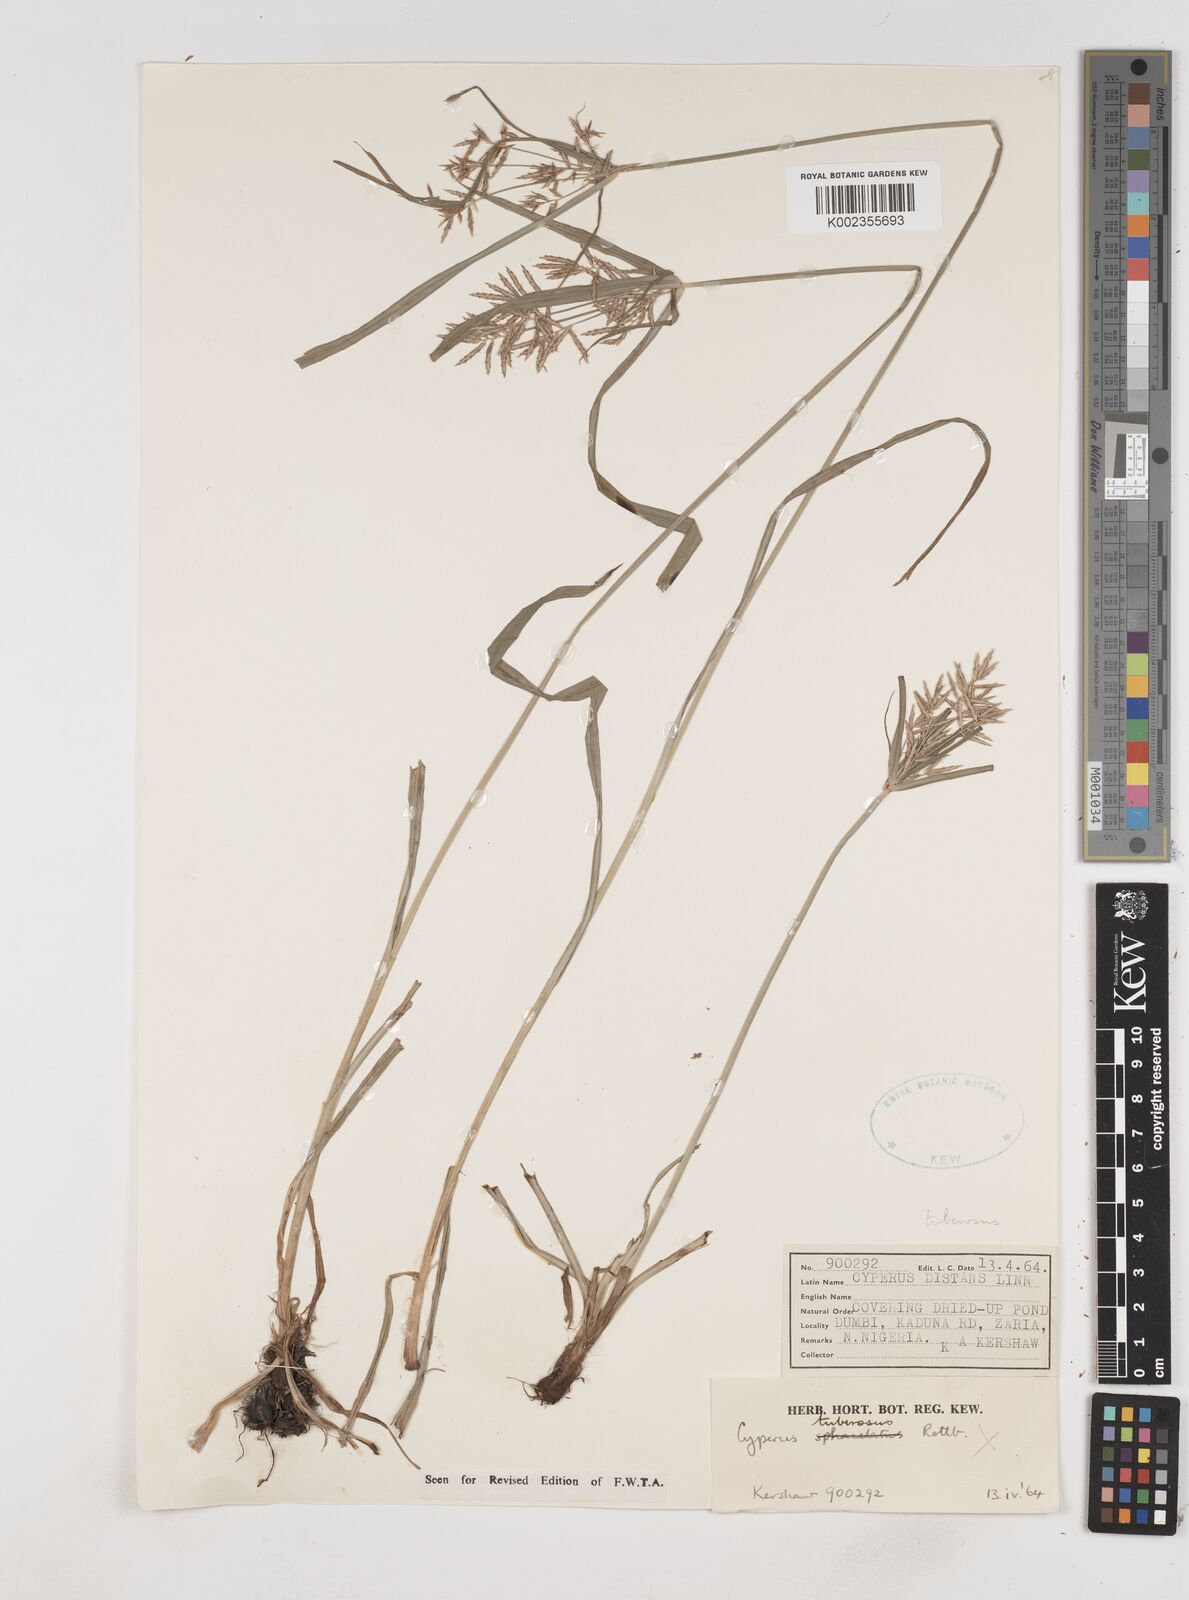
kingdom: Plantae
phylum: Tracheophyta
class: Liliopsida
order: Poales
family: Cyperaceae
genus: Cyperus
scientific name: Cyperus tuberosus
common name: Nut grass
